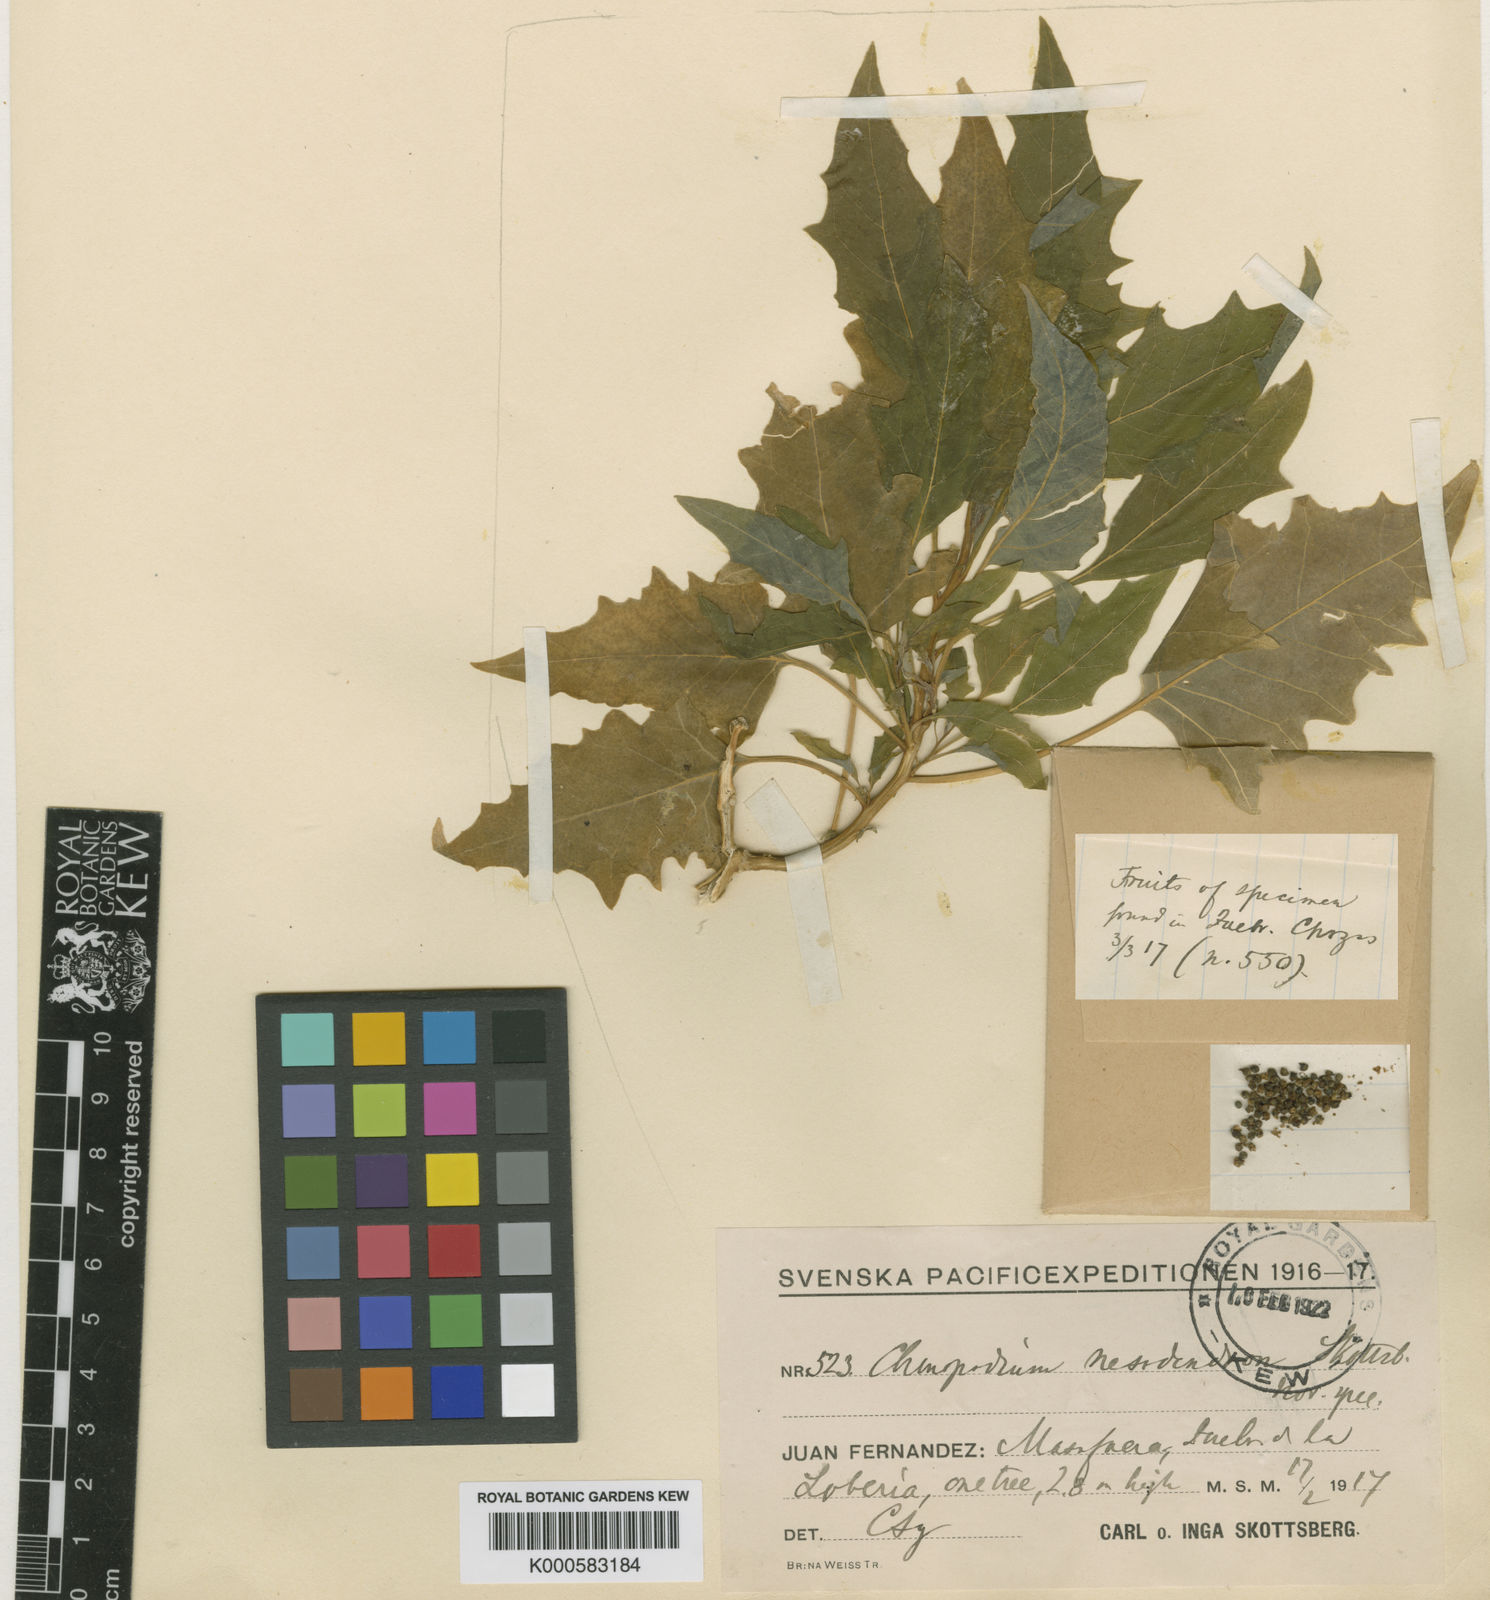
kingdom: Plantae
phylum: Tracheophyta
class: Magnoliopsida
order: Caryophyllales
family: Amaranthaceae
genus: Chenopodium
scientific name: Chenopodium nesodendron
